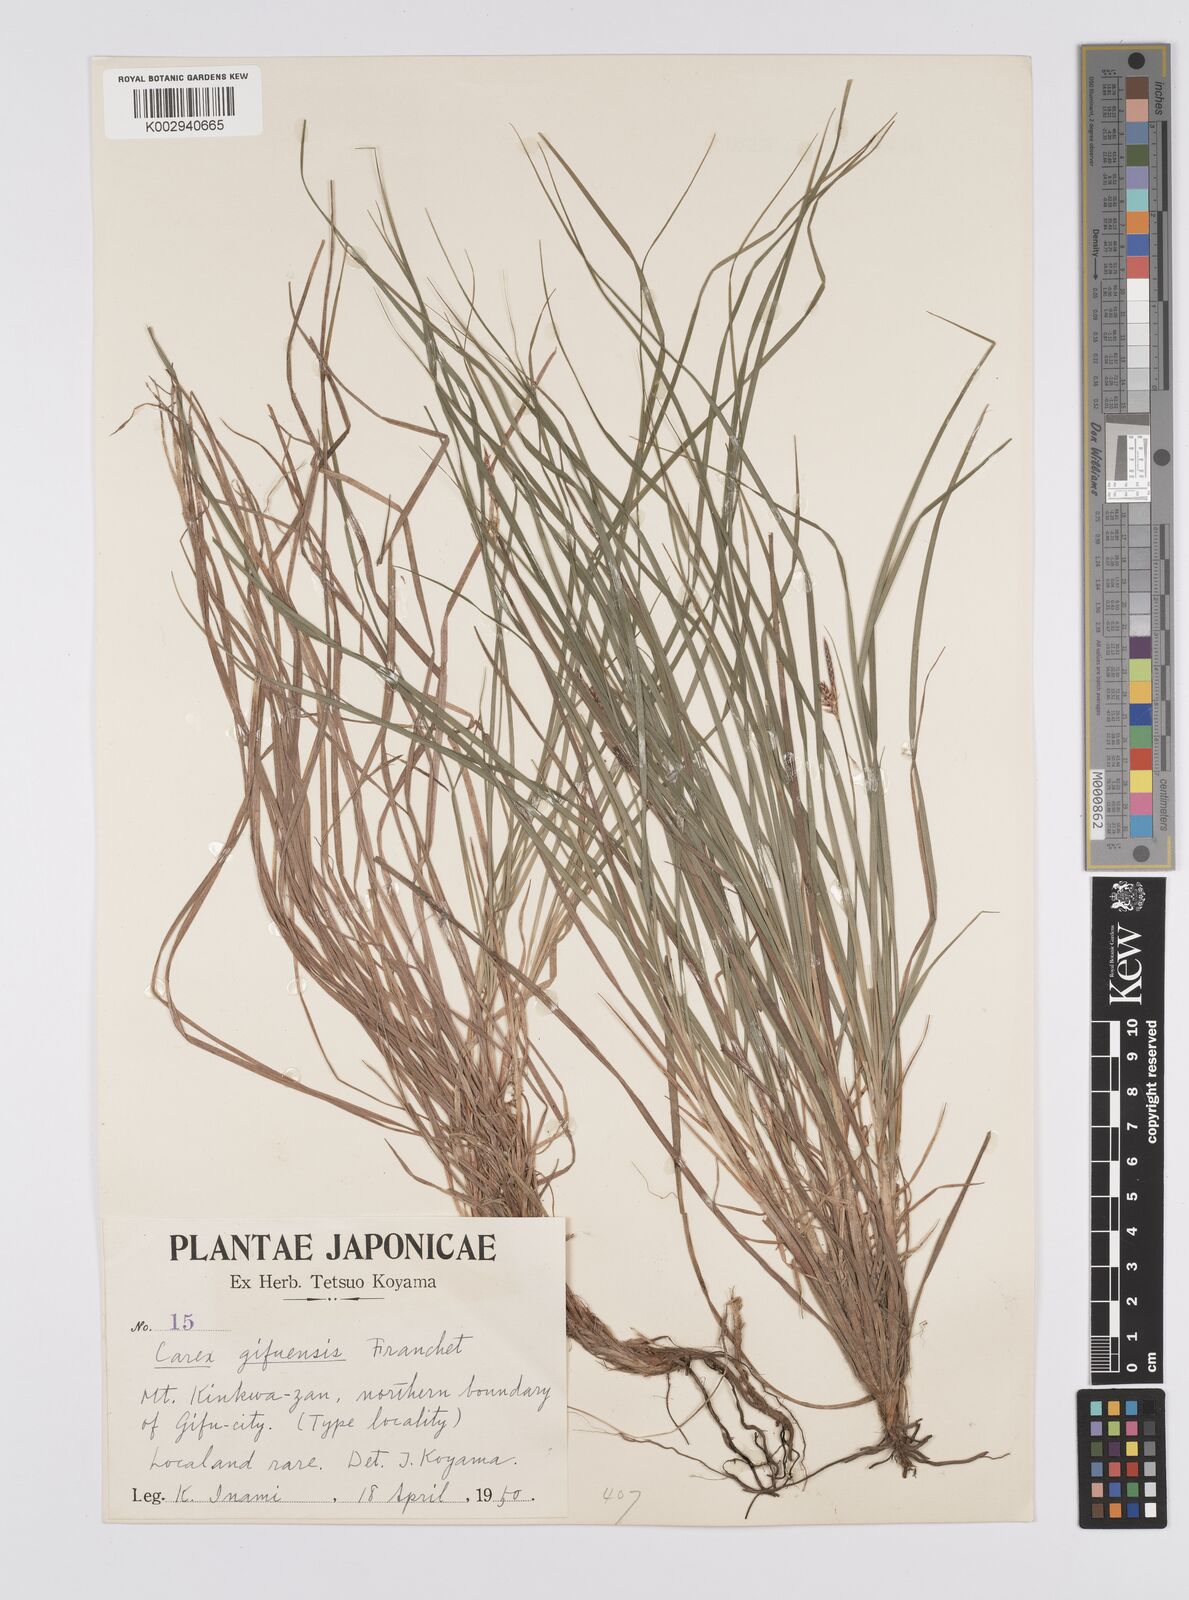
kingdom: Plantae
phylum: Tracheophyta
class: Liliopsida
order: Poales
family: Cyperaceae
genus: Carex
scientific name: Carex gifuensis
